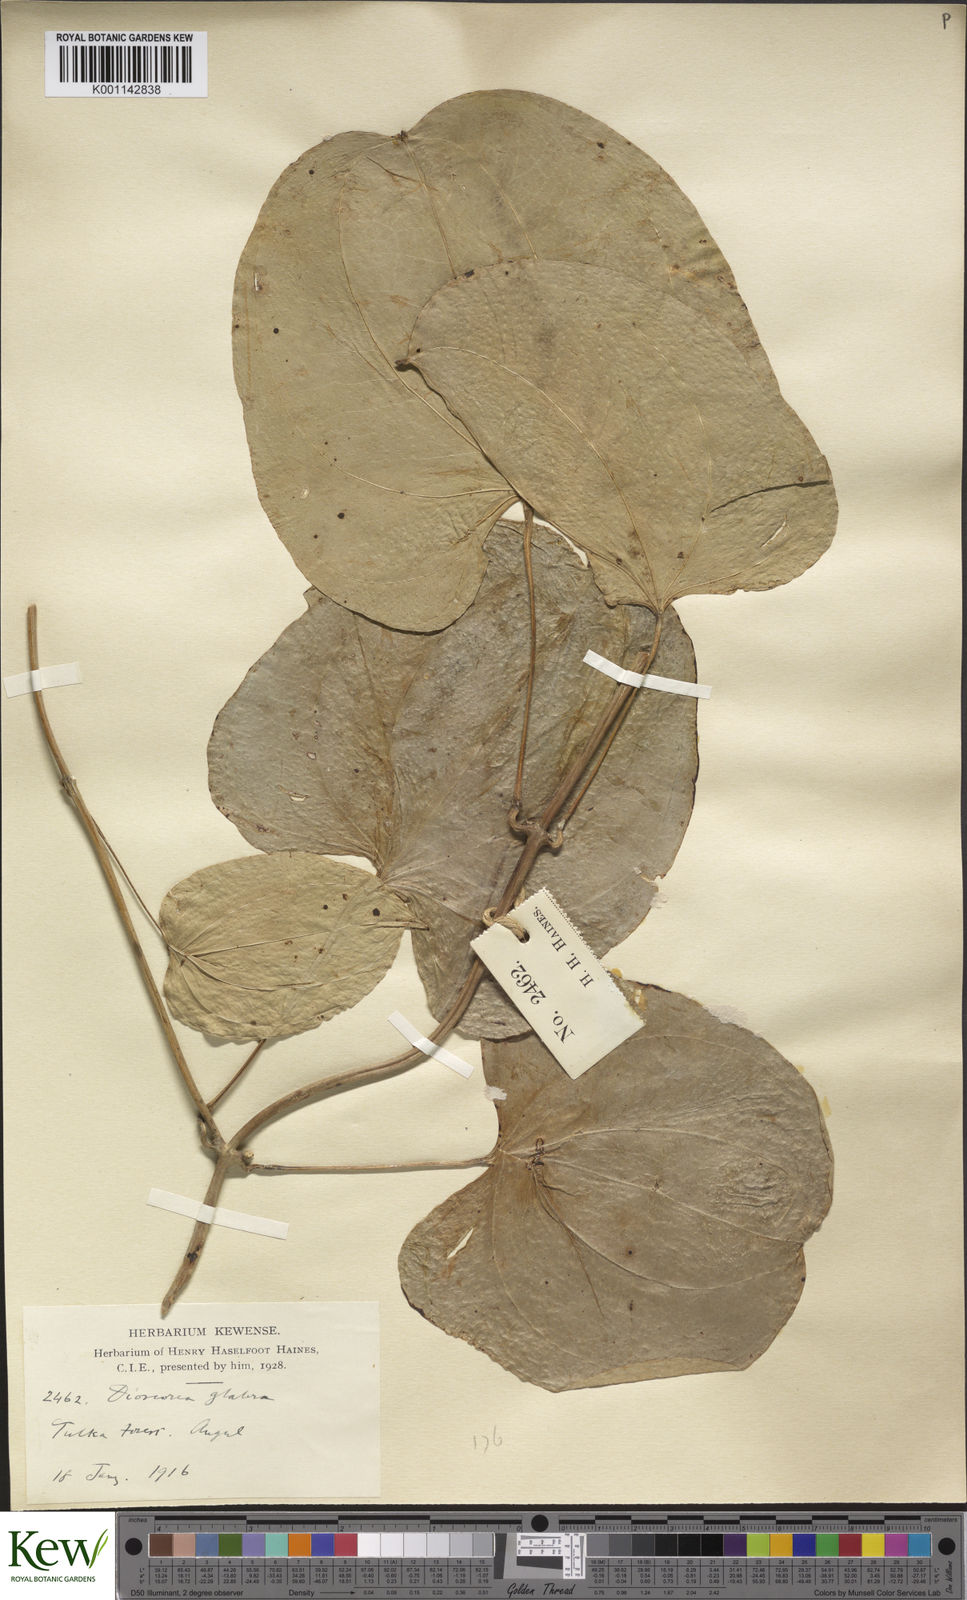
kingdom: Plantae
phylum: Tracheophyta
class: Liliopsida
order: Dioscoreales
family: Dioscoreaceae
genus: Dioscorea
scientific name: Dioscorea glabra
